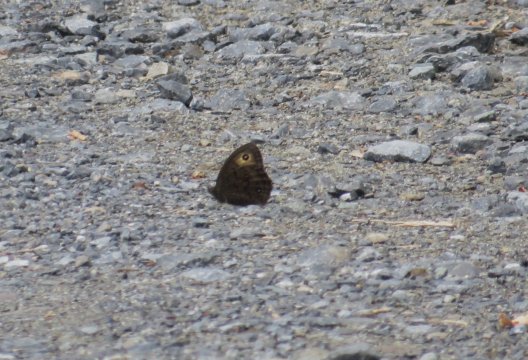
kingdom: Animalia
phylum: Arthropoda
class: Insecta
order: Lepidoptera
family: Nymphalidae
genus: Cercyonis
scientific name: Cercyonis pegala
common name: Common Wood-Nymph
